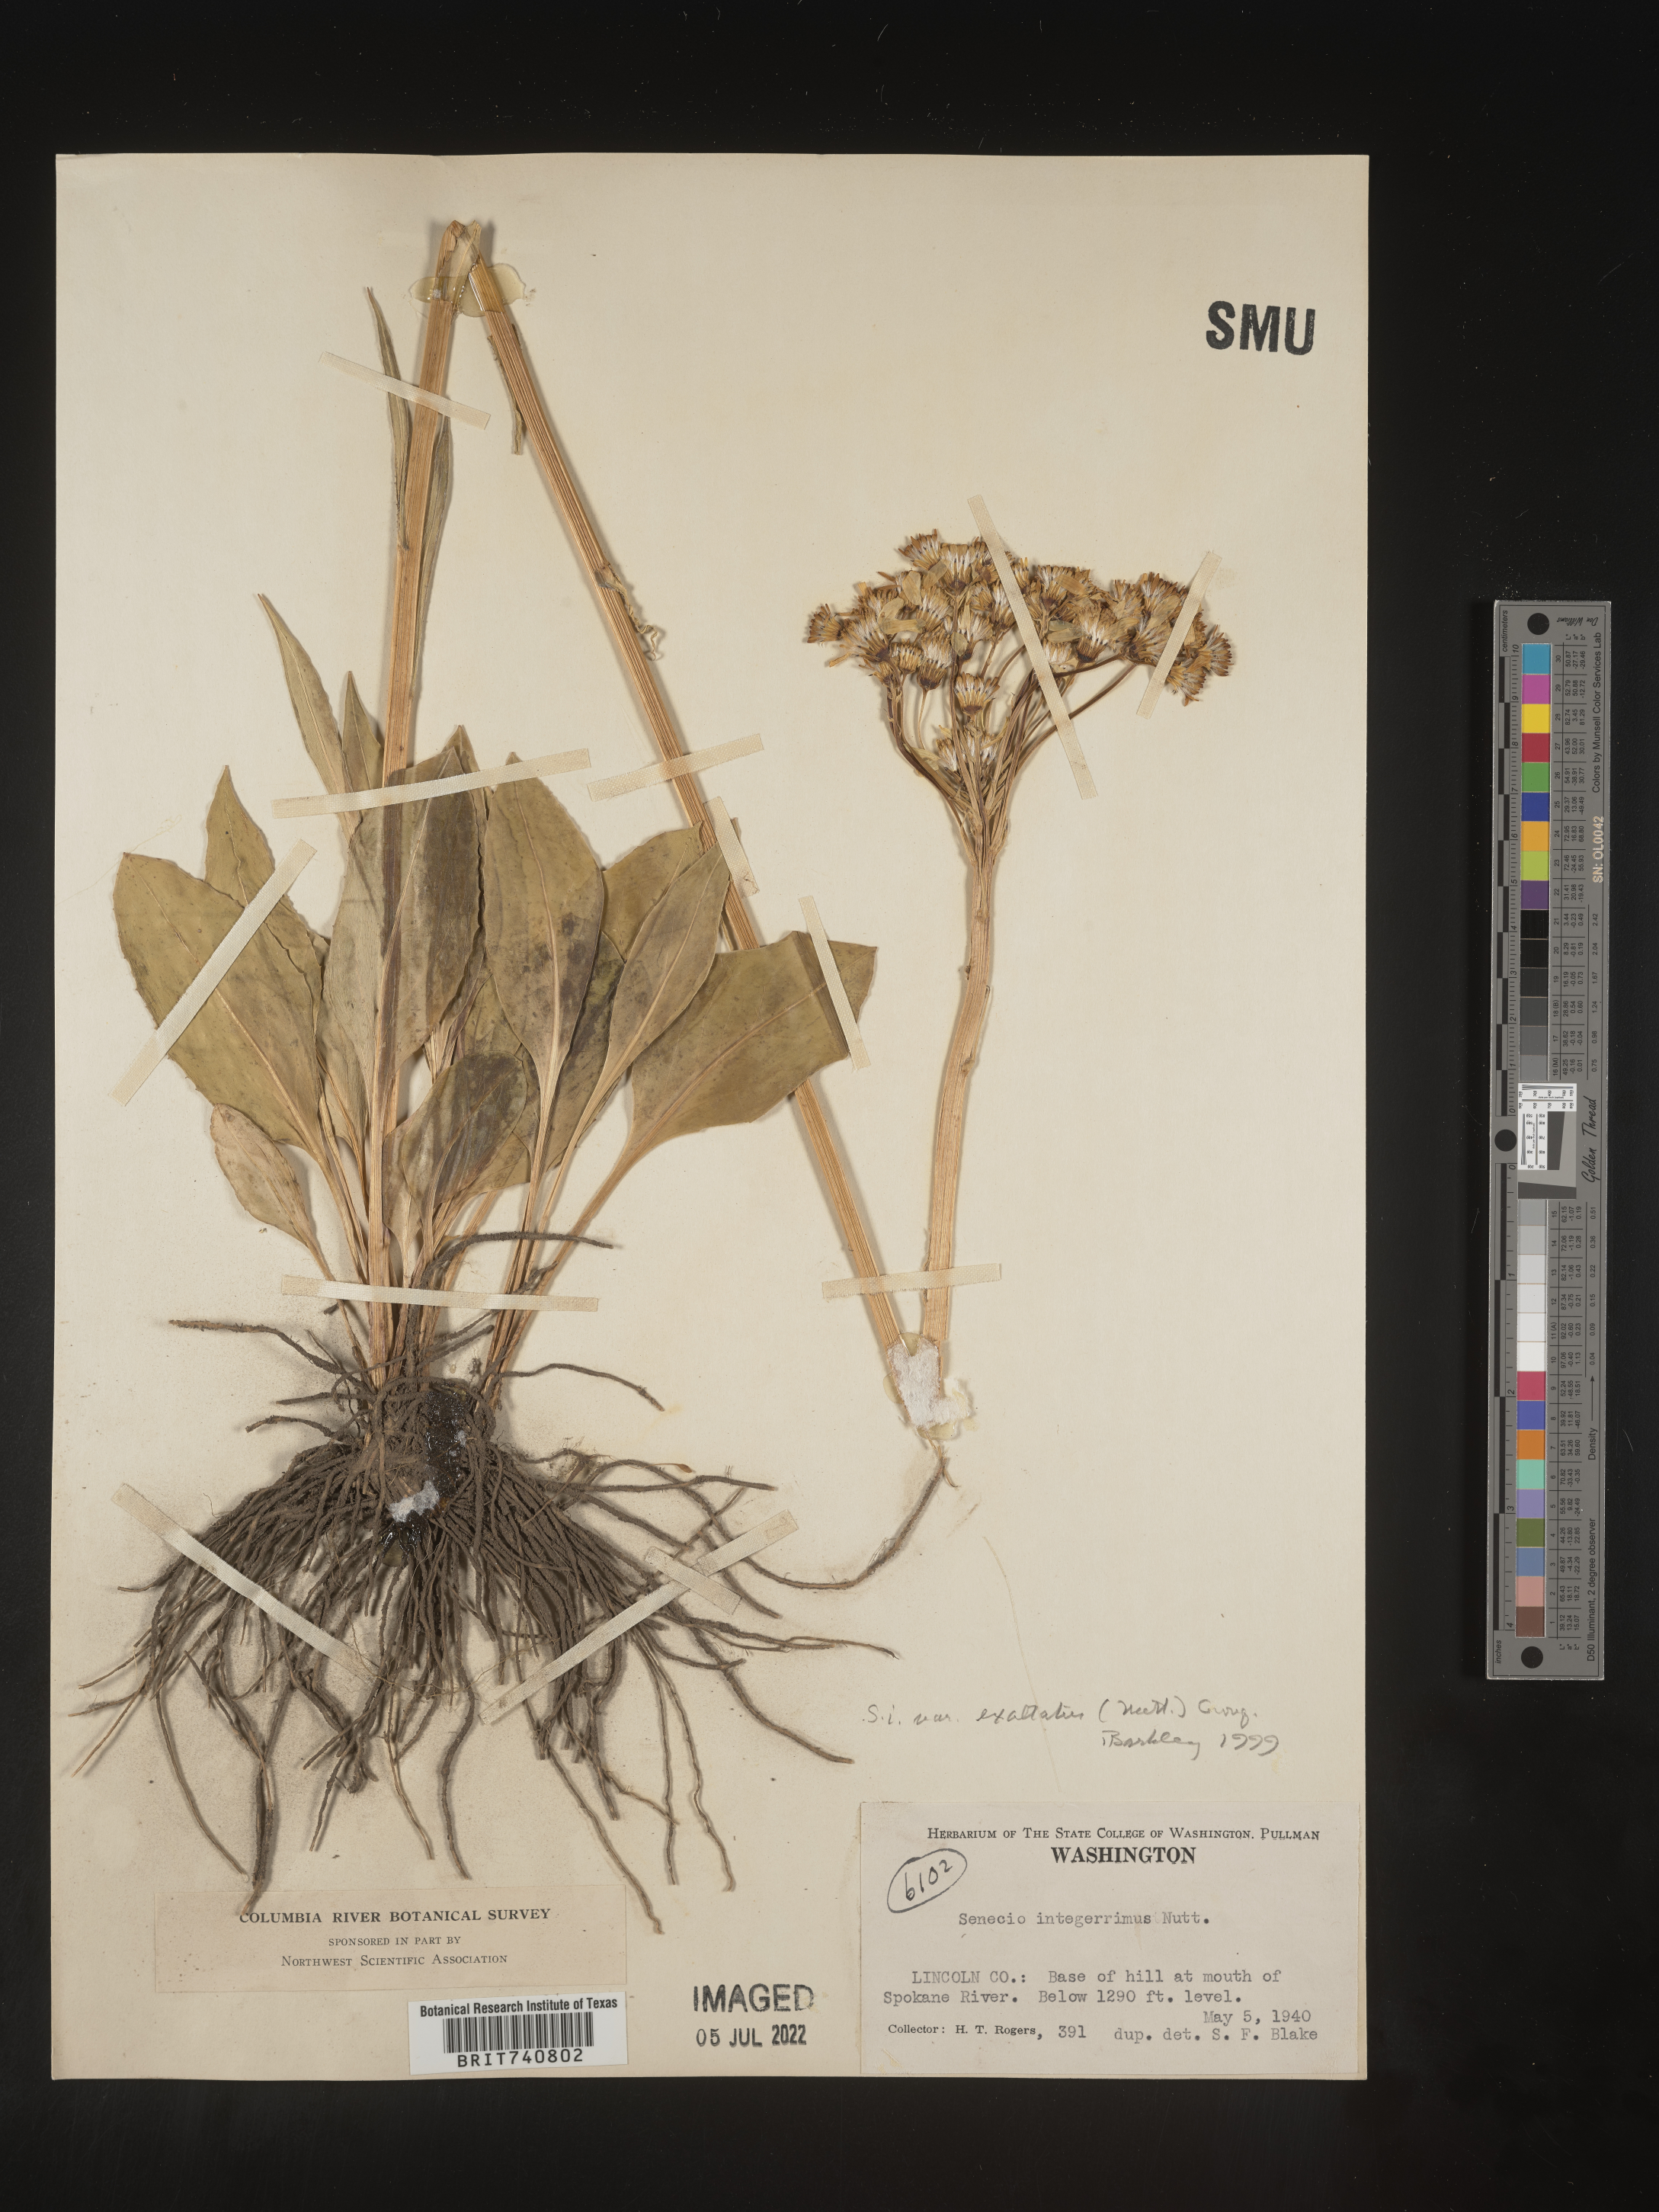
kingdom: Plantae
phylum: Tracheophyta
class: Magnoliopsida
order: Asterales
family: Asteraceae
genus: Senecio
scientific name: Senecio integerrimus
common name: Gaugeplant
